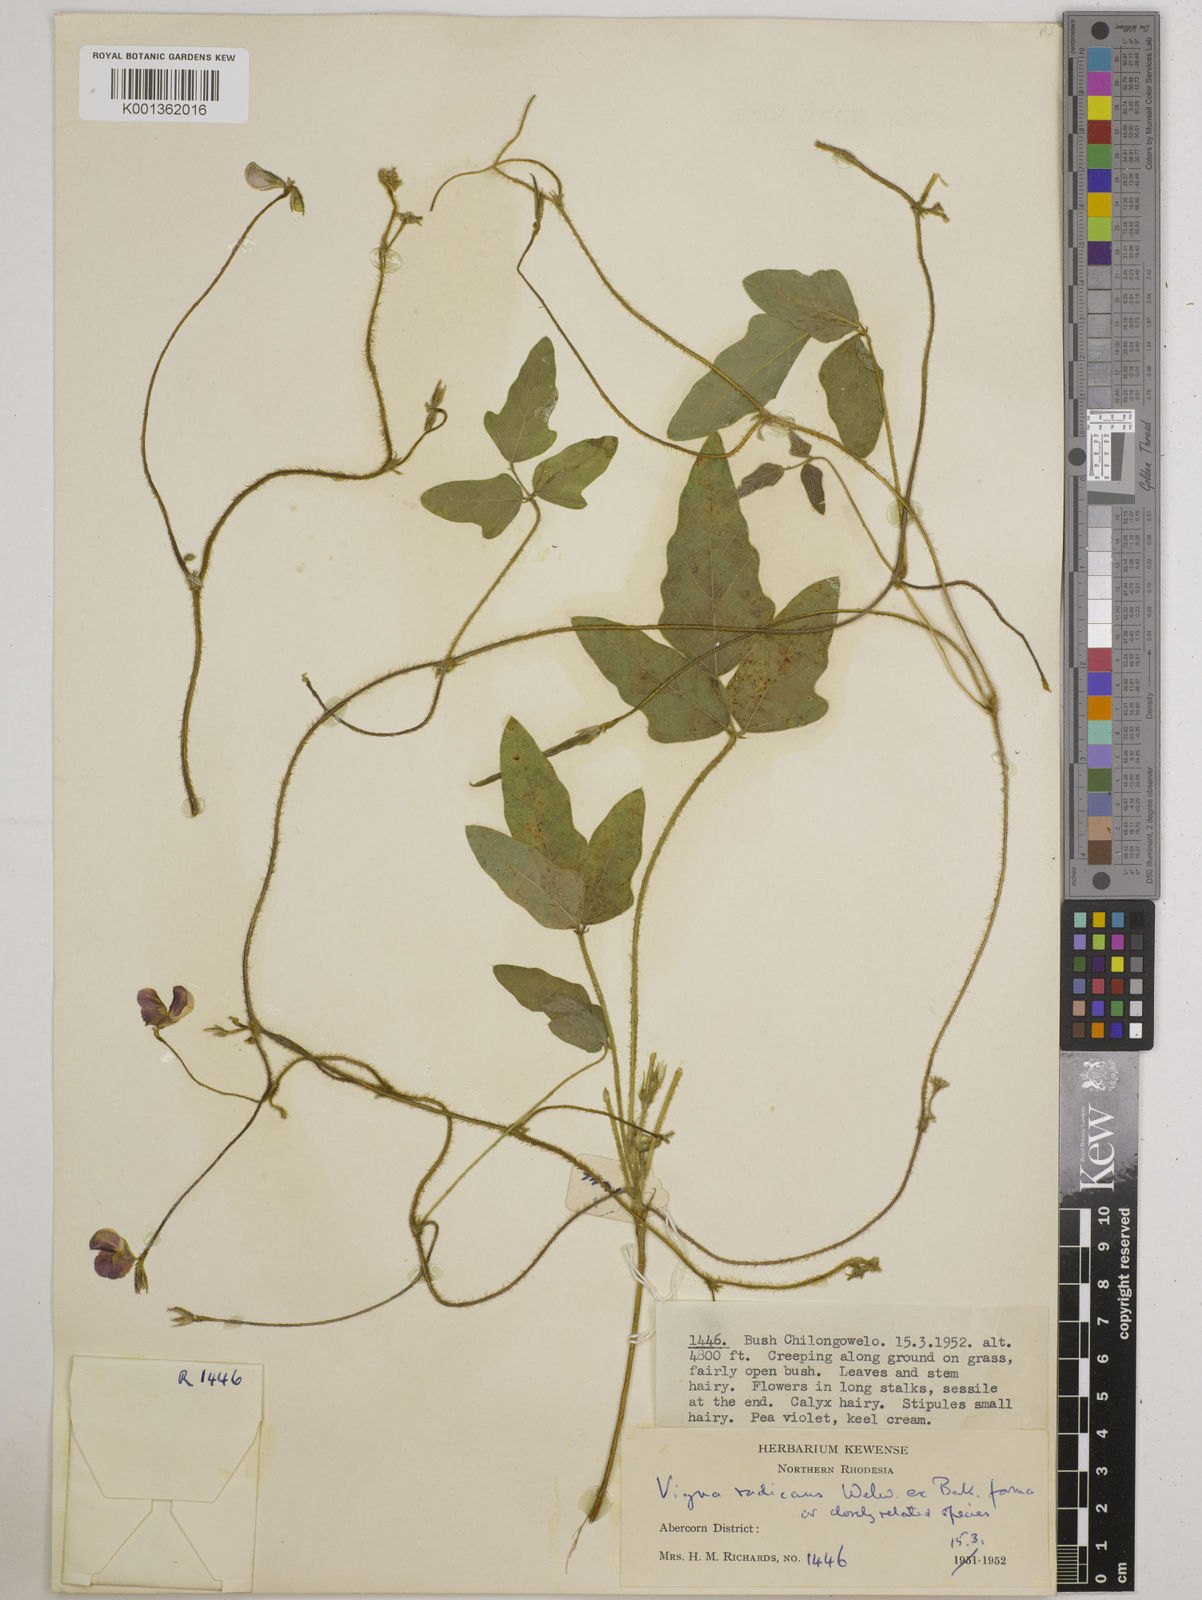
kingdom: Plantae
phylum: Tracheophyta
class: Magnoliopsida
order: Fabales
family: Fabaceae
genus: Vigna
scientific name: Vigna radicans
